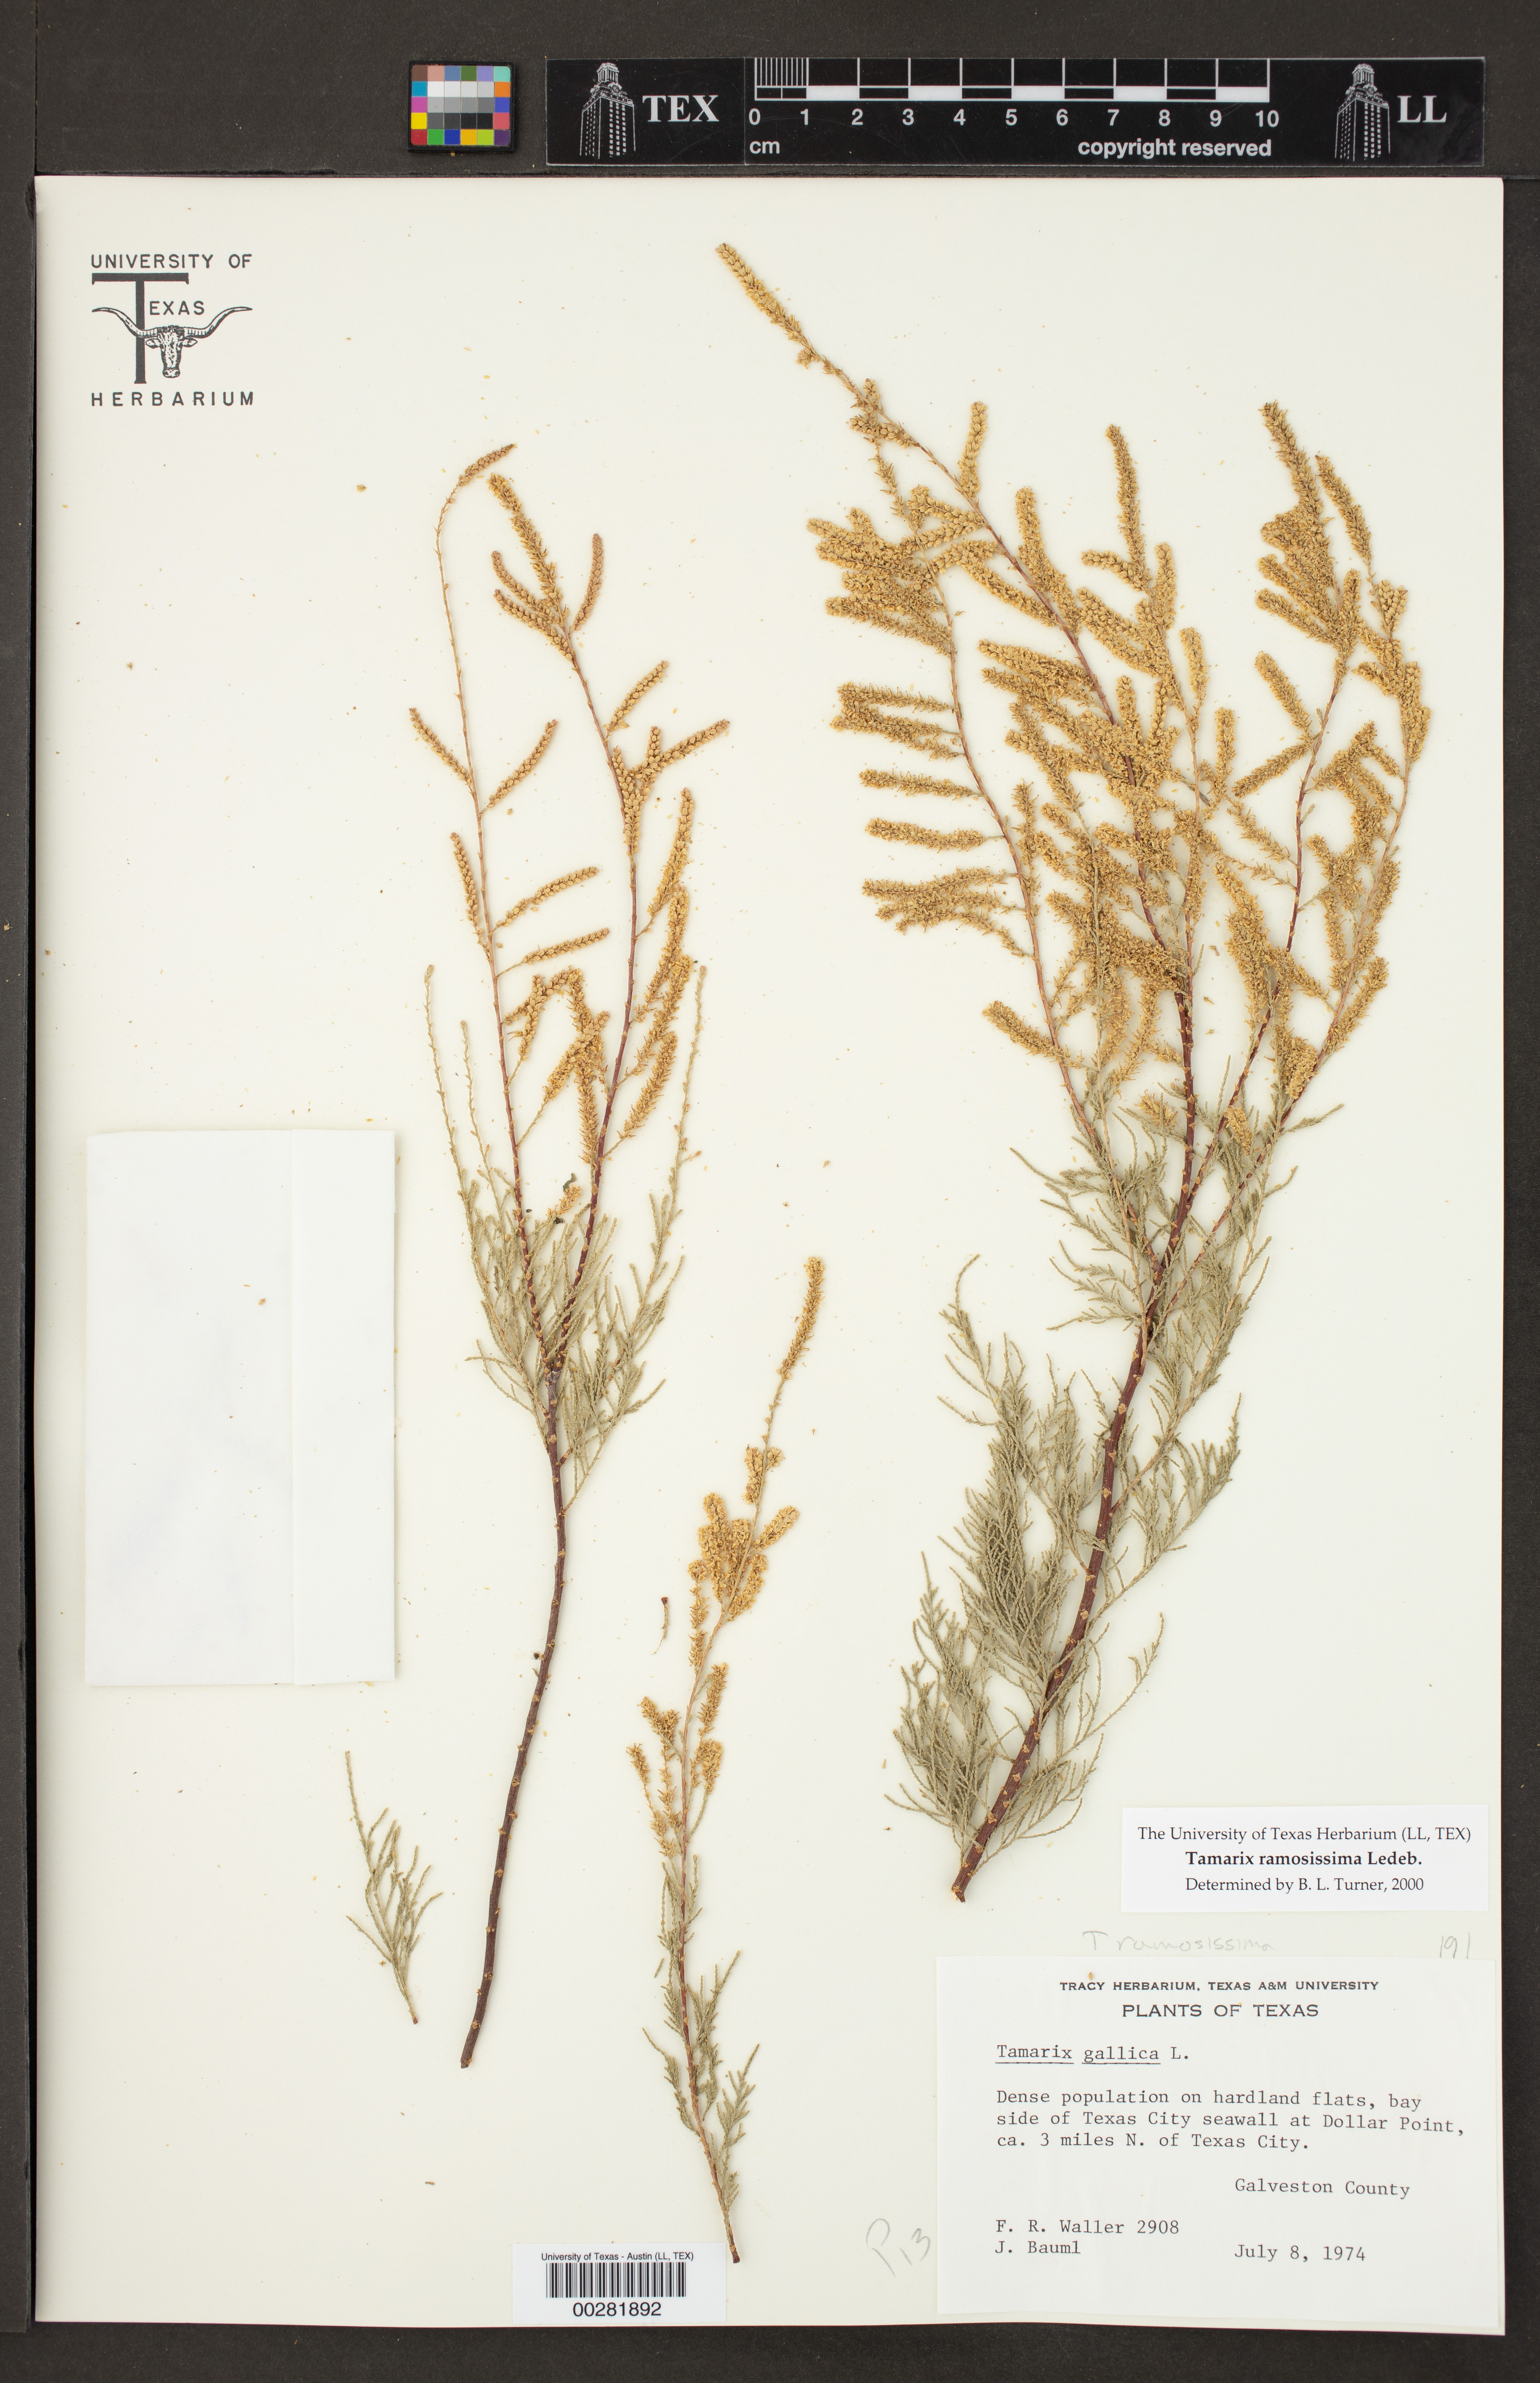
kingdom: Plantae
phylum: Tracheophyta
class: Magnoliopsida
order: Caryophyllales
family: Tamaricaceae
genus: Tamarix
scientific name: Tamarix ramosissima
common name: Pink tamarisk
